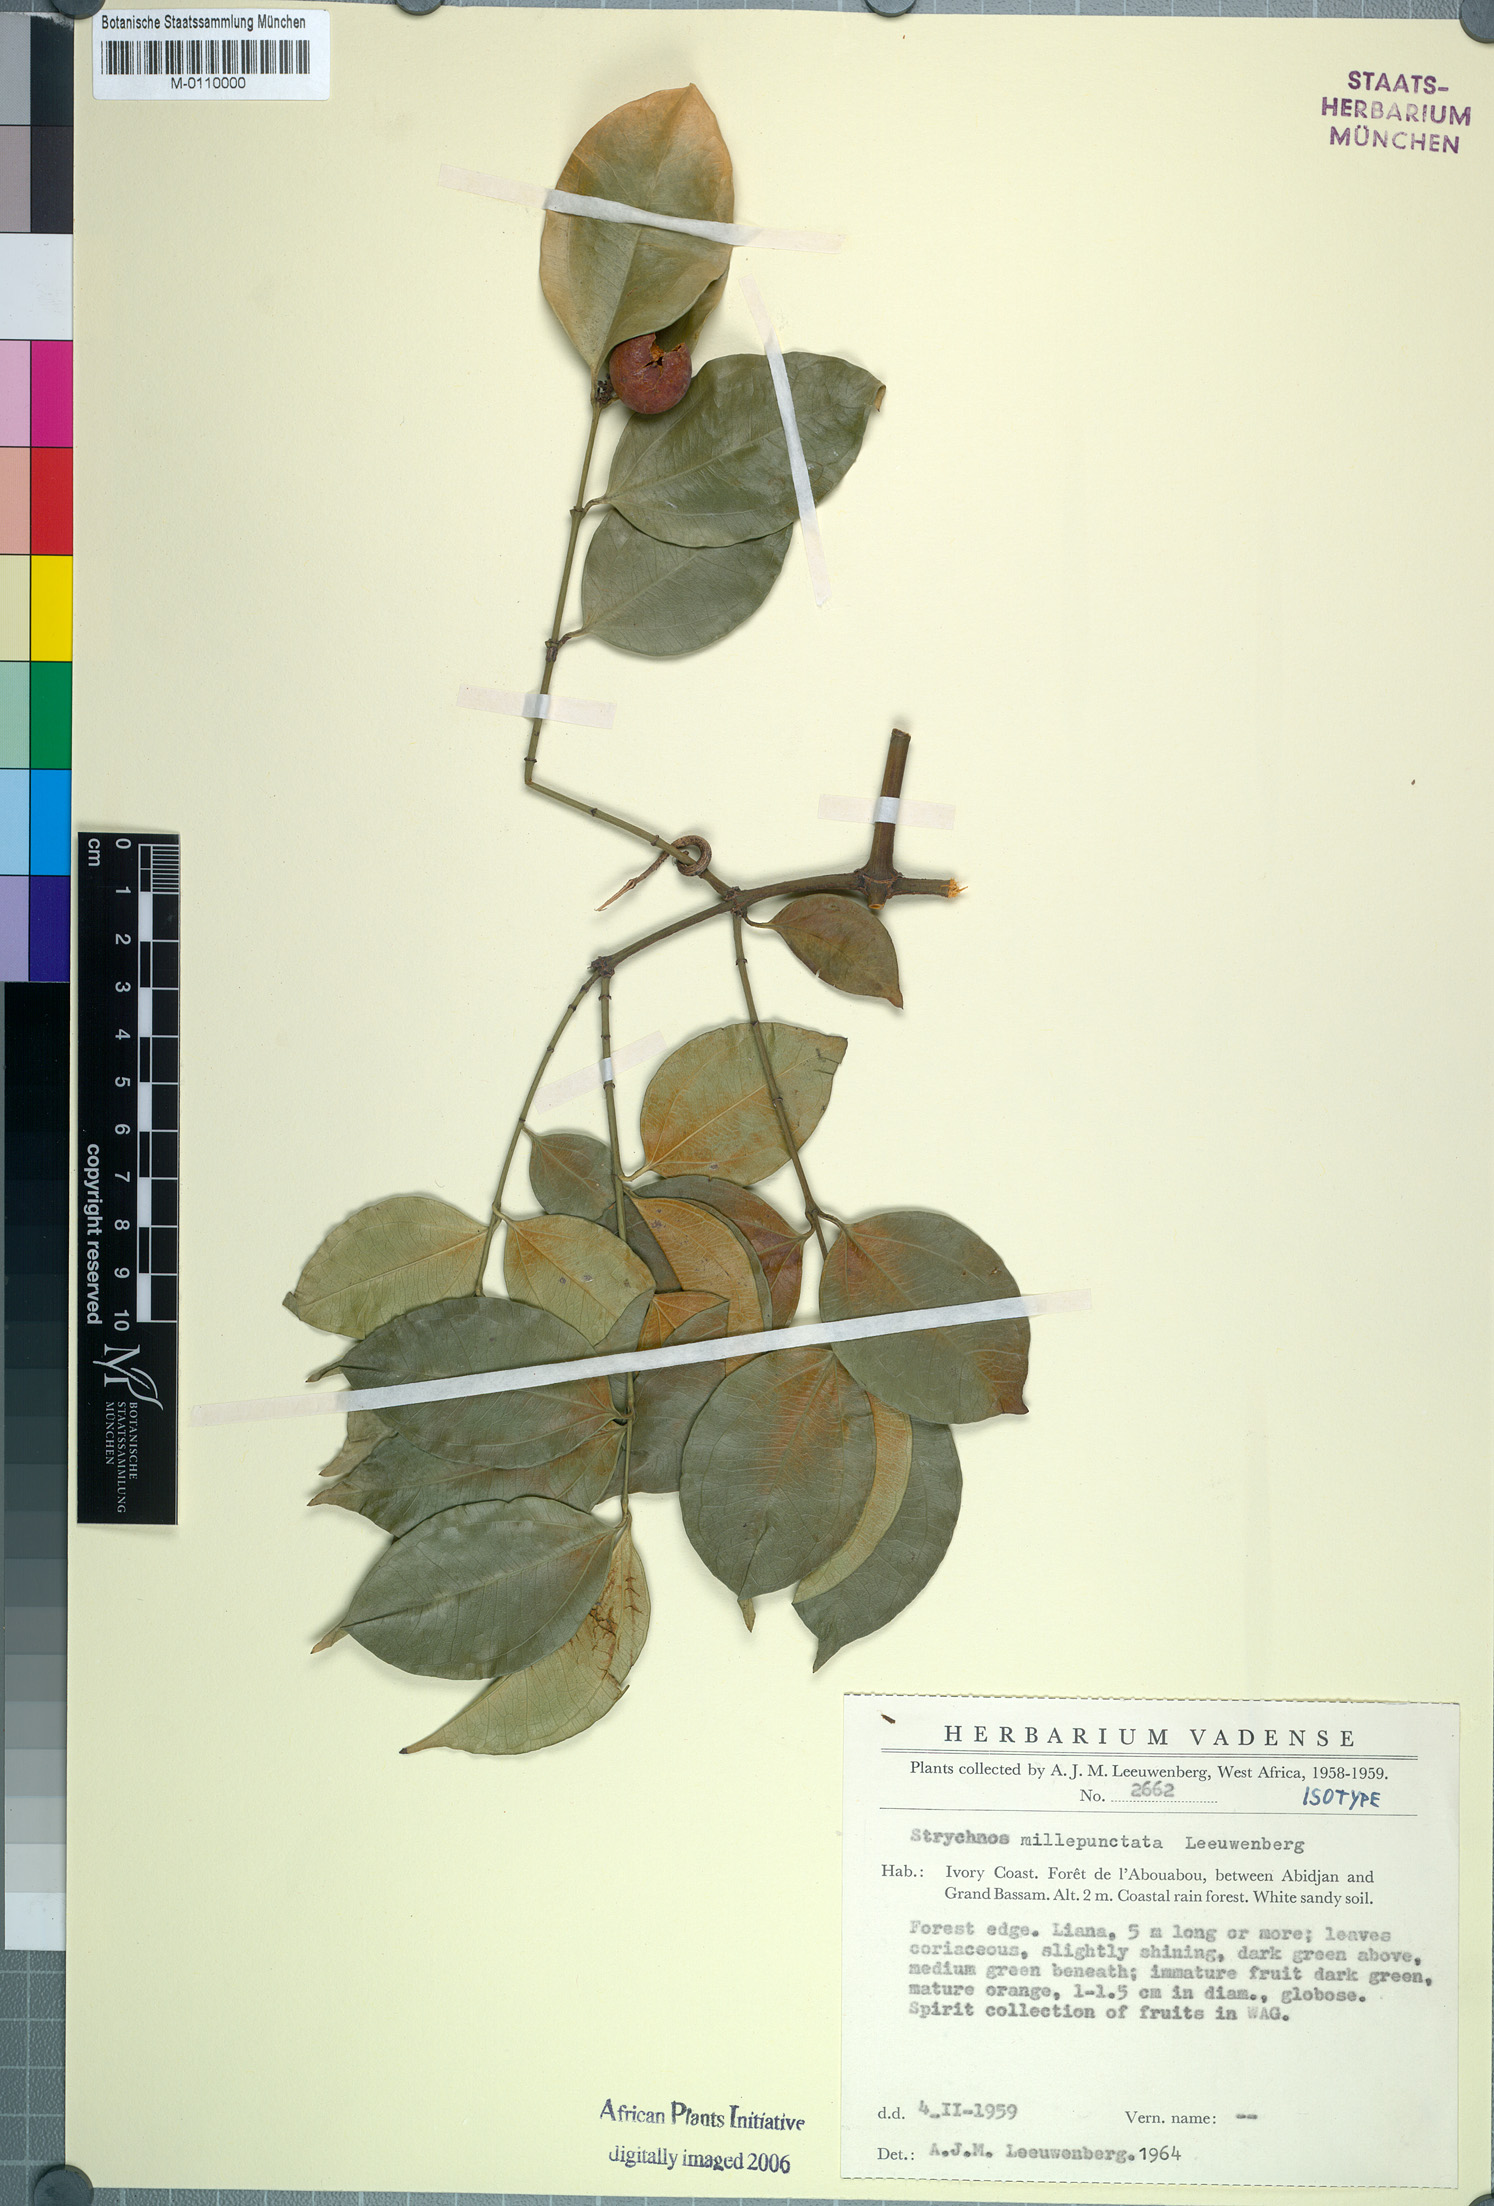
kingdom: Plantae
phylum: Tracheophyta
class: Magnoliopsida
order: Gentianales
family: Loganiaceae
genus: Strychnos
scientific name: Strychnos millepunctata
